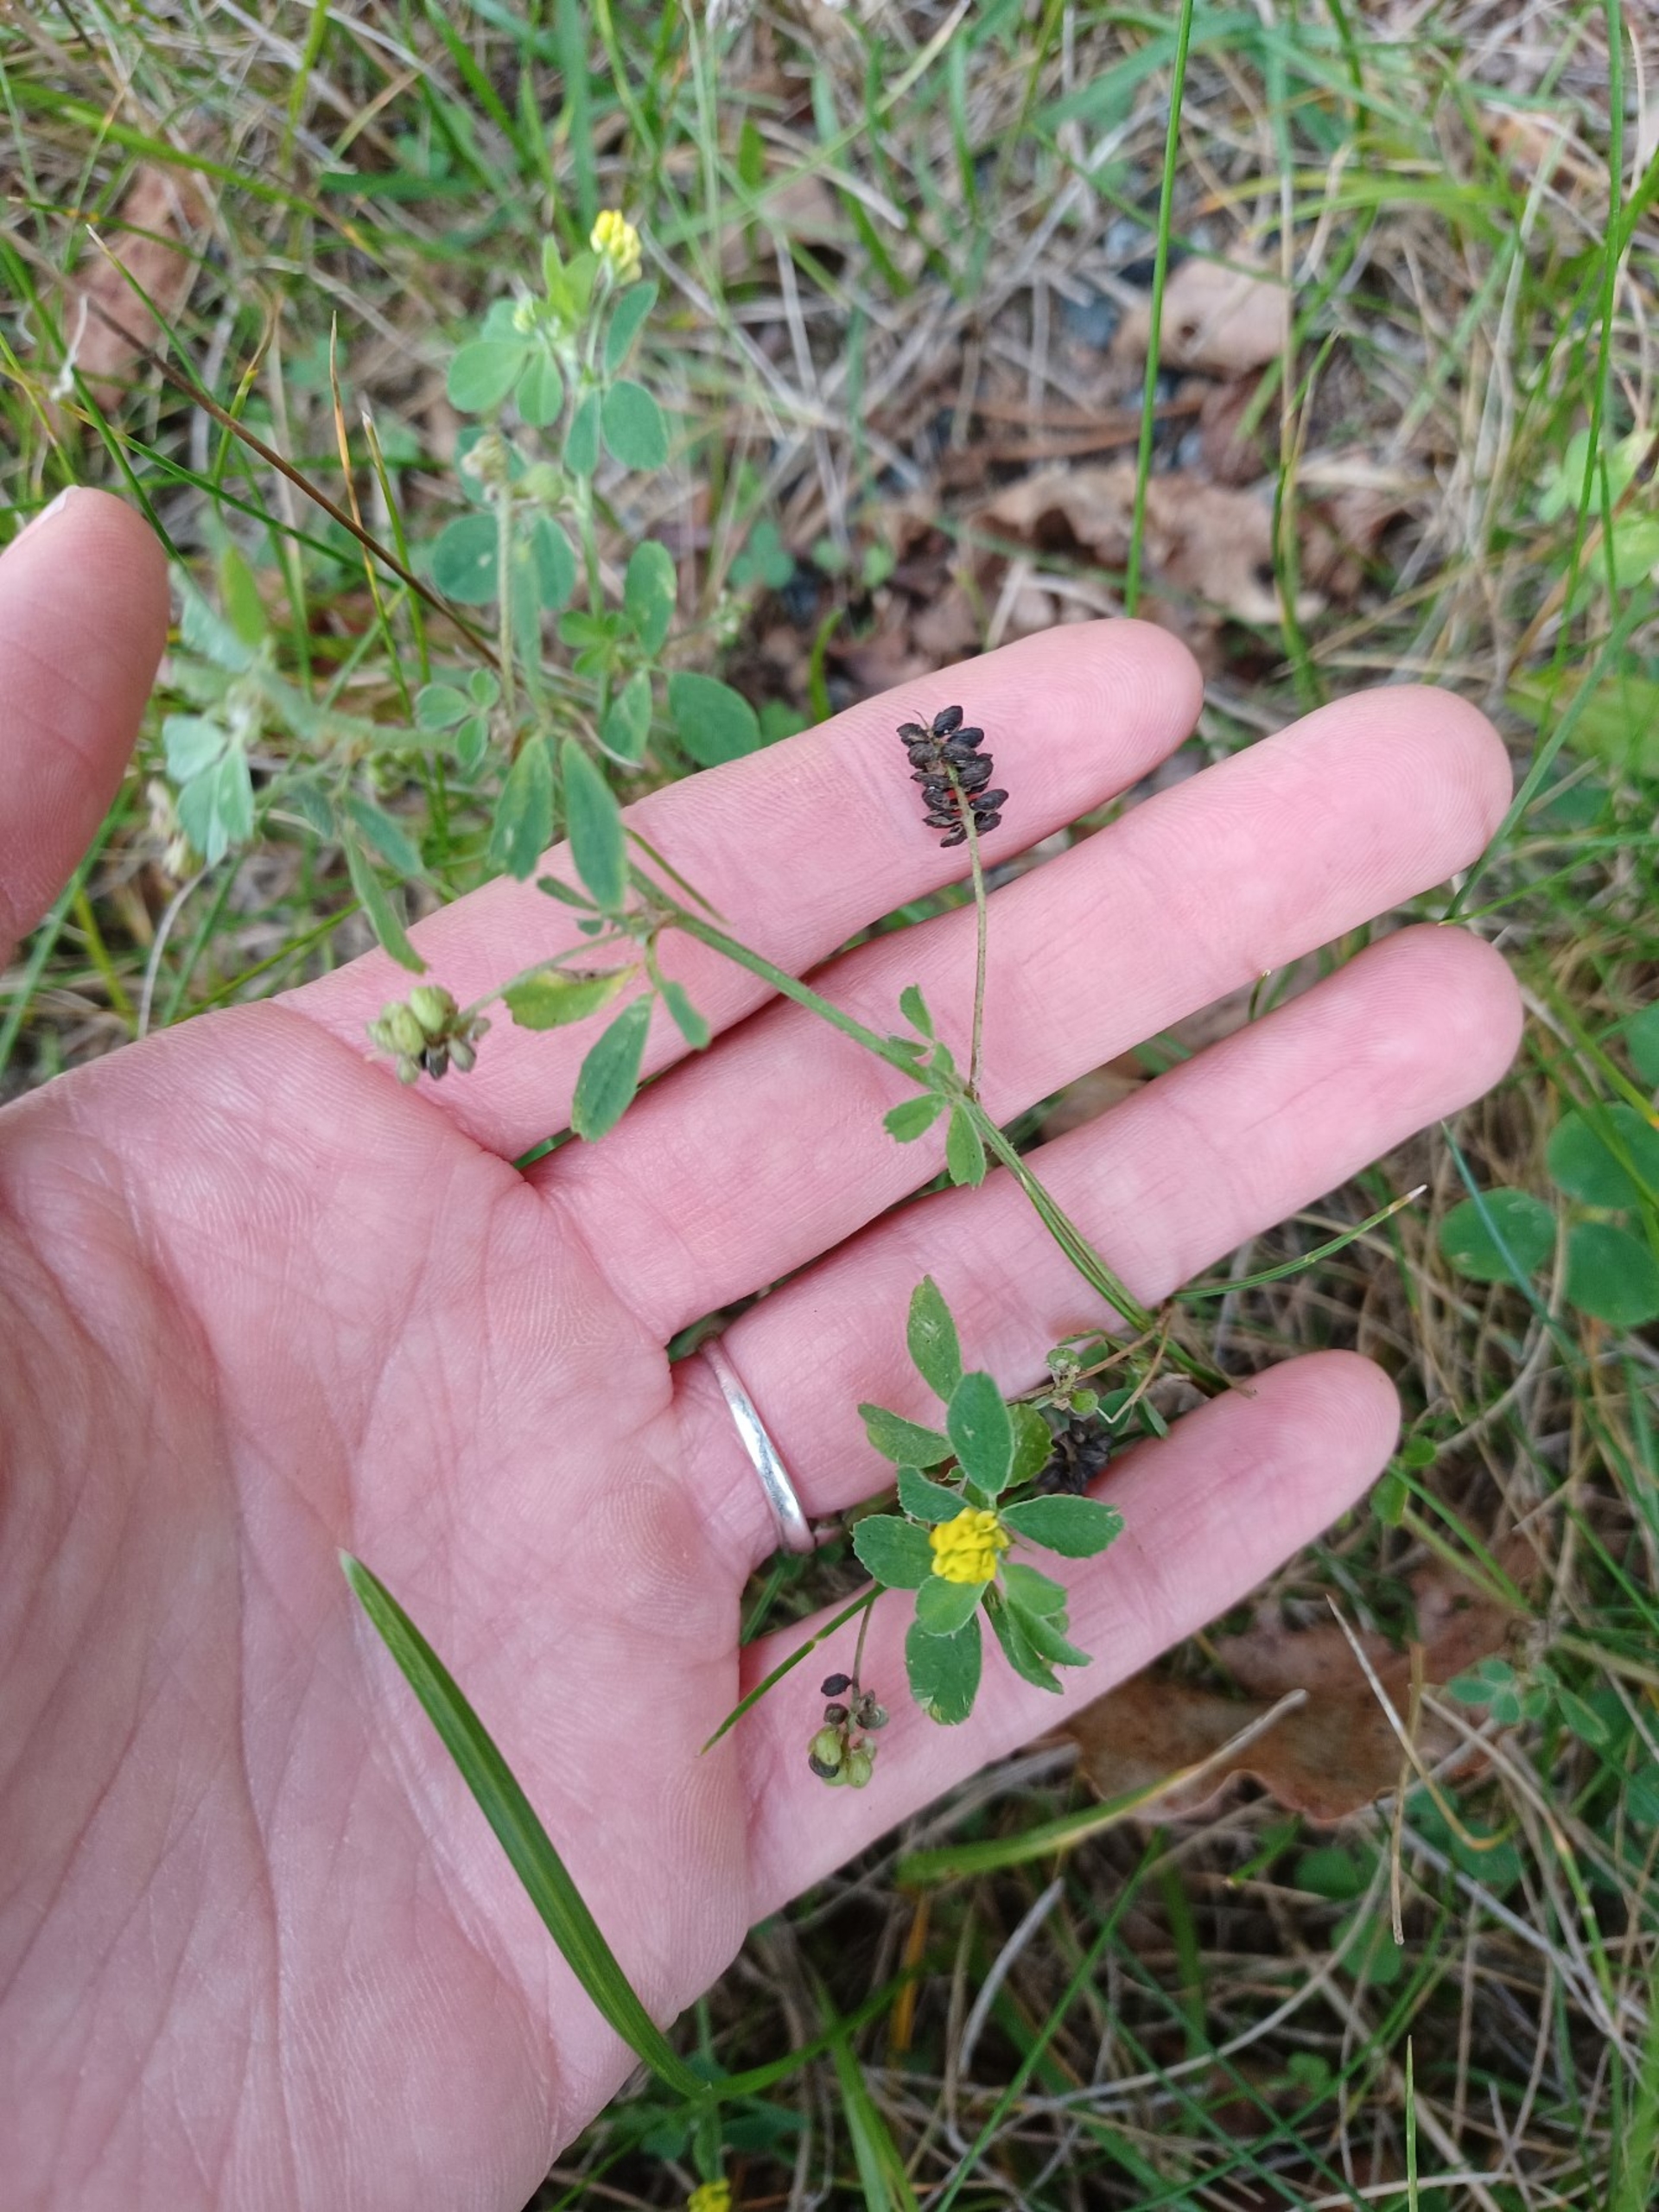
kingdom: Plantae
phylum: Tracheophyta
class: Magnoliopsida
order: Fabales
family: Fabaceae
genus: Medicago
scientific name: Medicago lupulina
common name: Humle-sneglebælg
